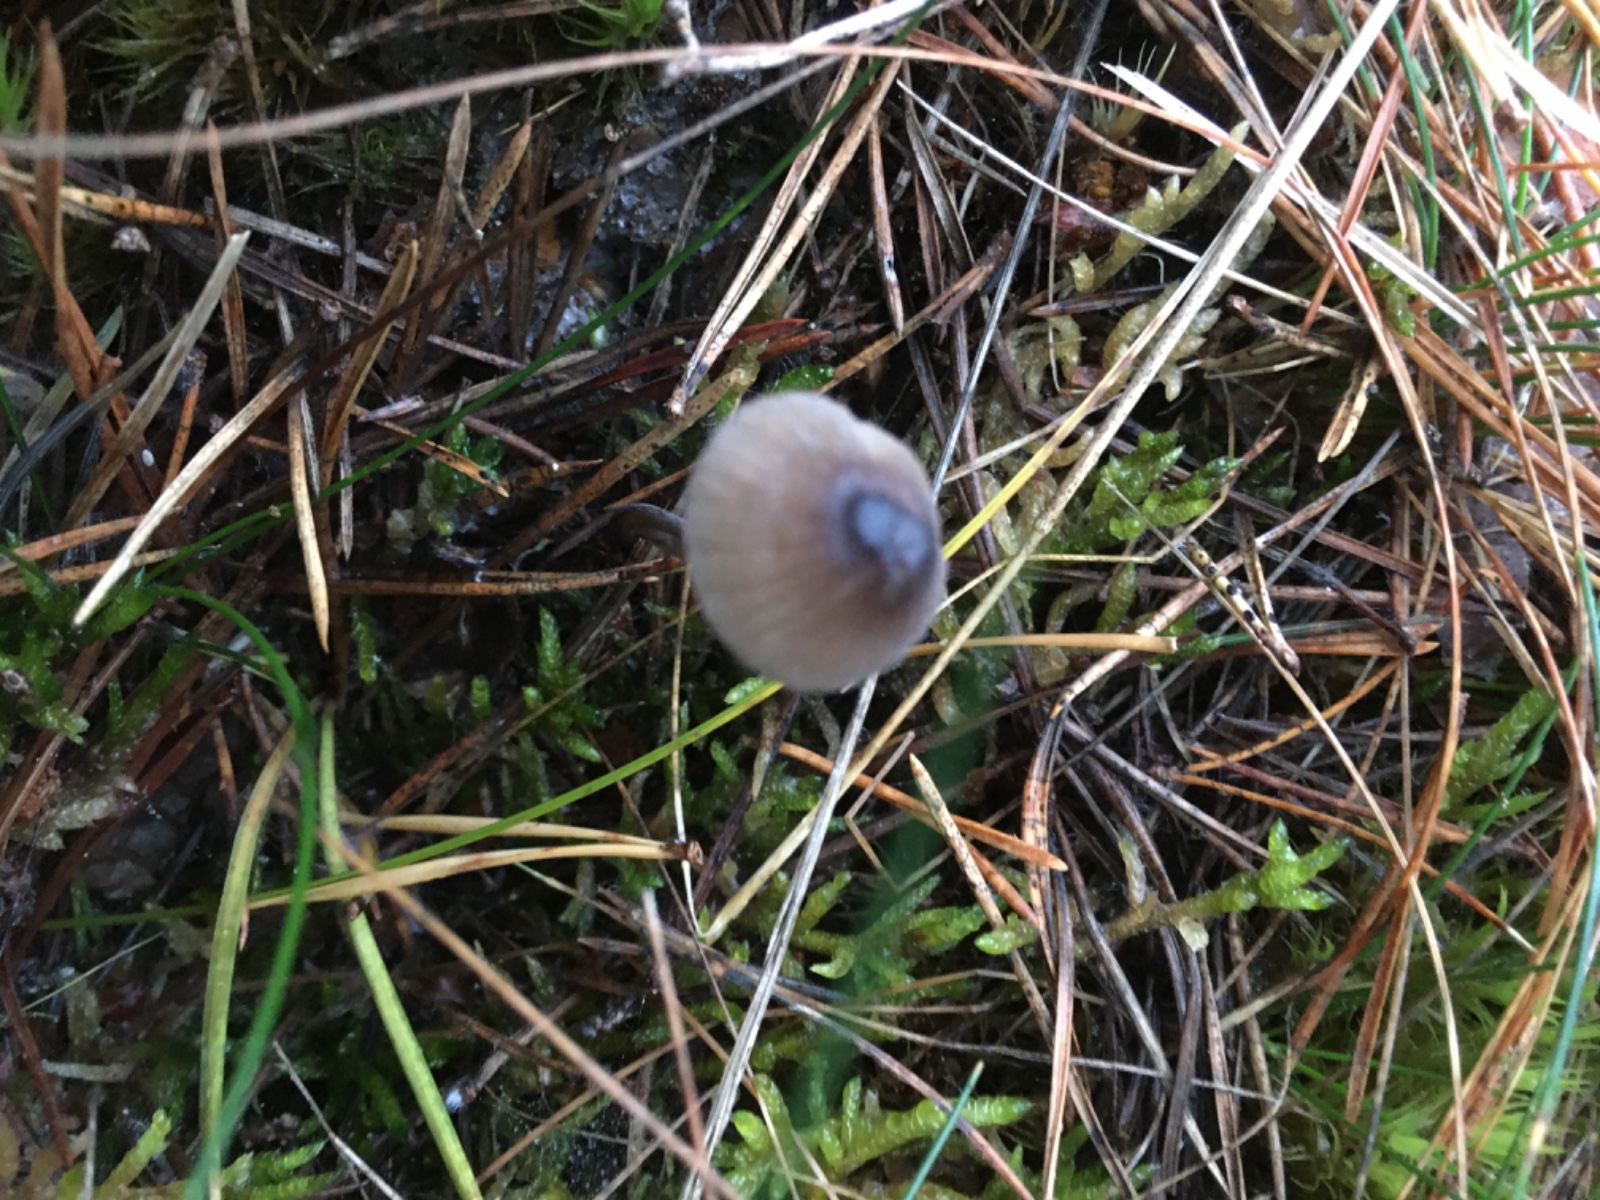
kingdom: Fungi
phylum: Basidiomycota
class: Agaricomycetes
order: Agaricales
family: Mycenaceae
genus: Mycena
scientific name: Mycena galopus
